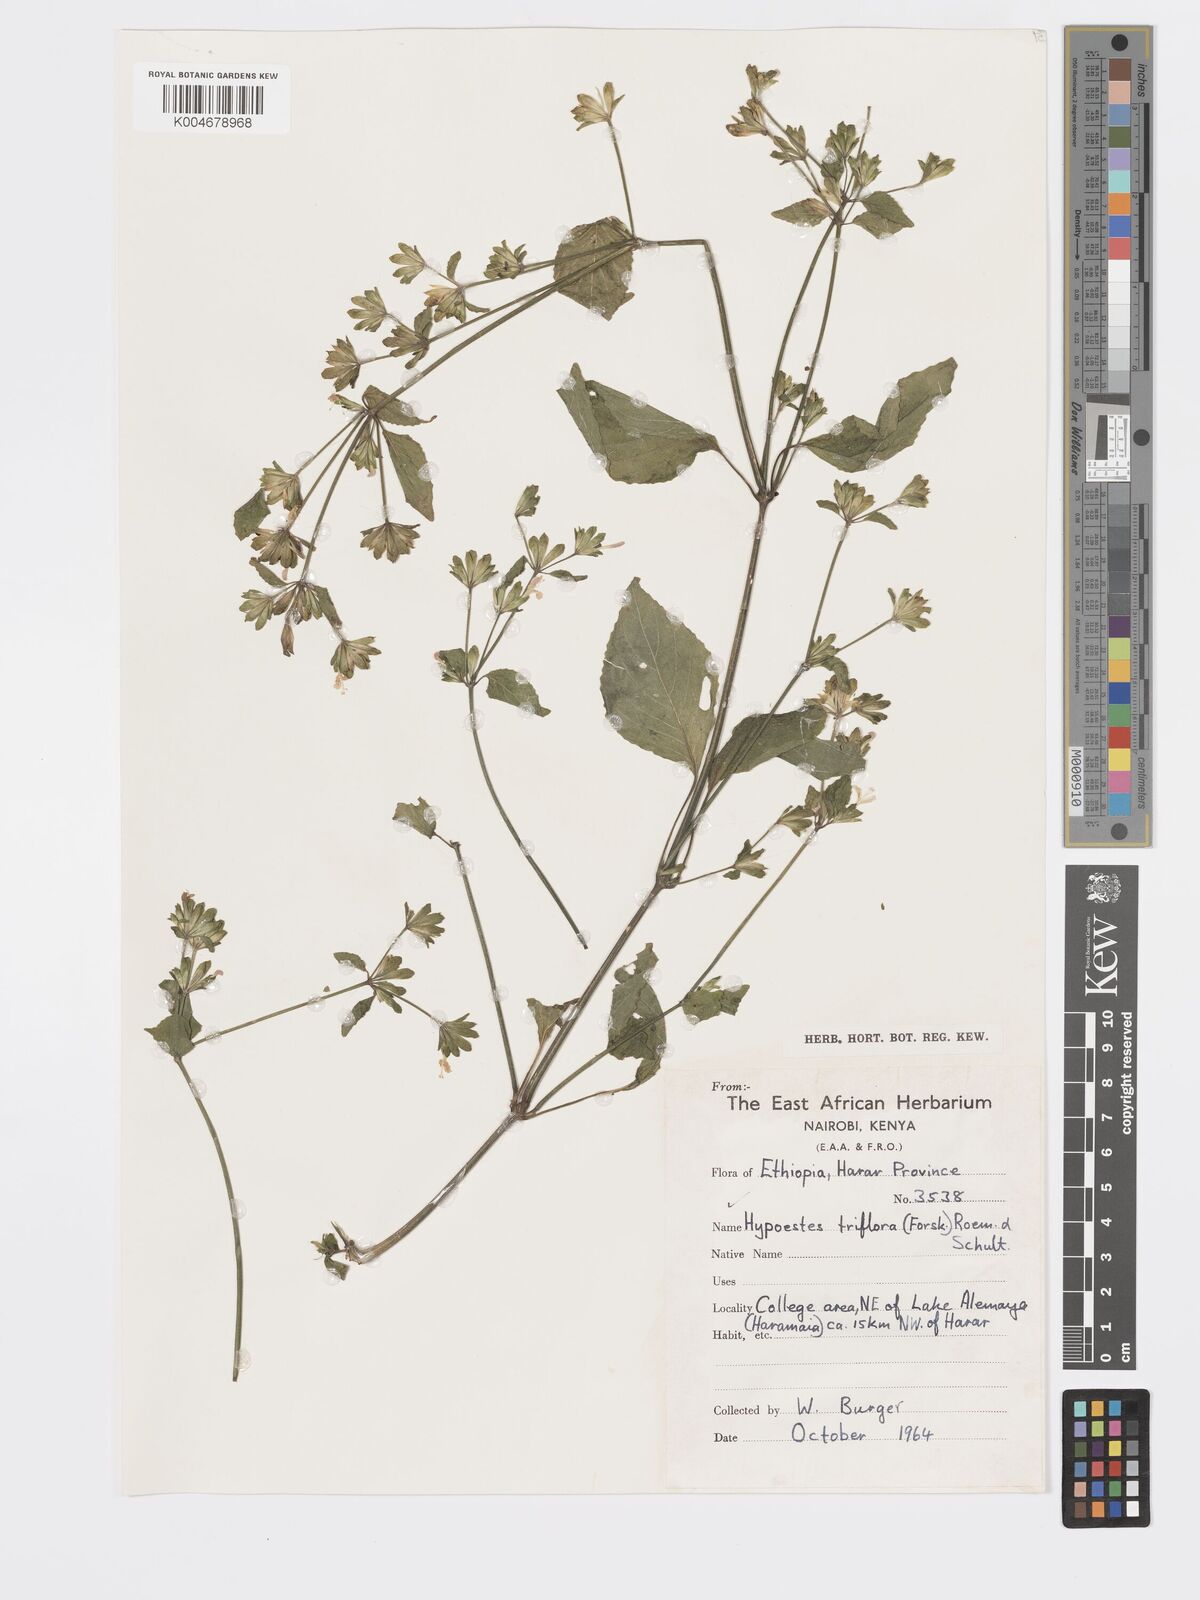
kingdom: Plantae
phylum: Tracheophyta
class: Magnoliopsida
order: Lamiales
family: Acanthaceae
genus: Hypoestes
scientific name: Hypoestes triflora
